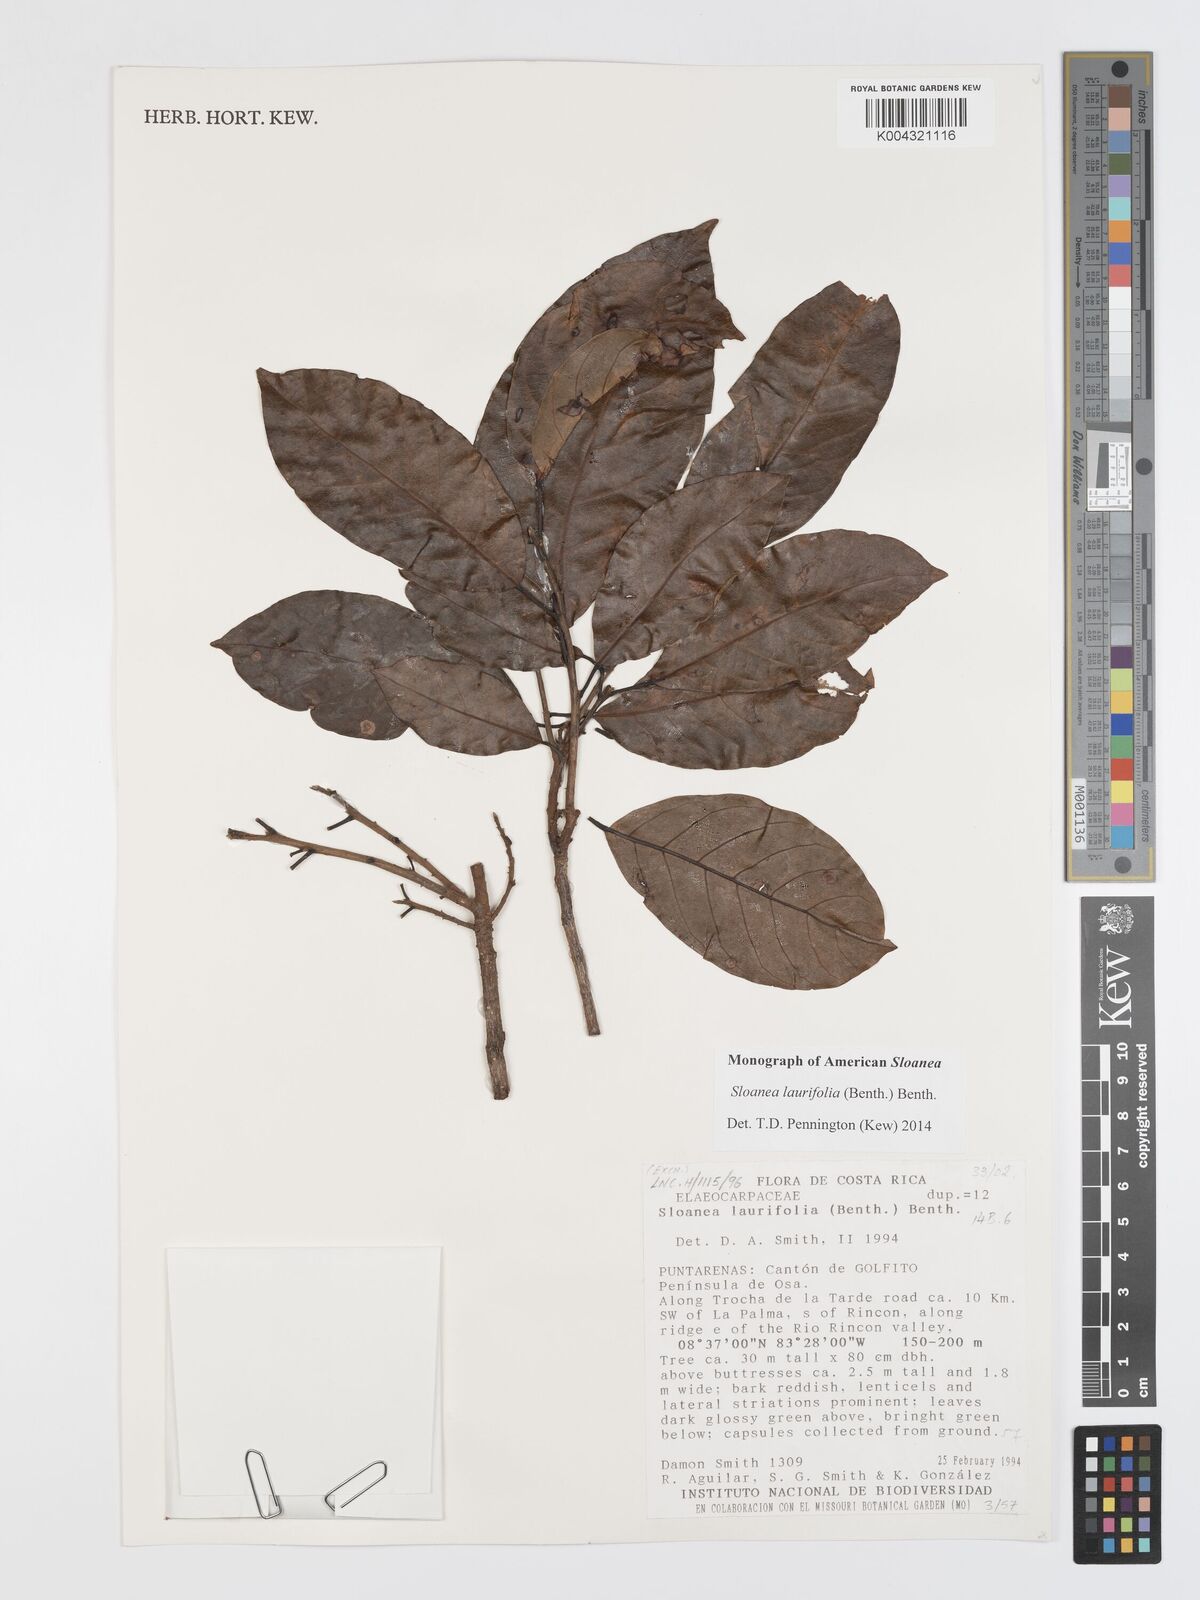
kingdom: Plantae
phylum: Tracheophyta
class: Magnoliopsida
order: Oxalidales
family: Elaeocarpaceae
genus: Sloanea
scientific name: Sloanea
